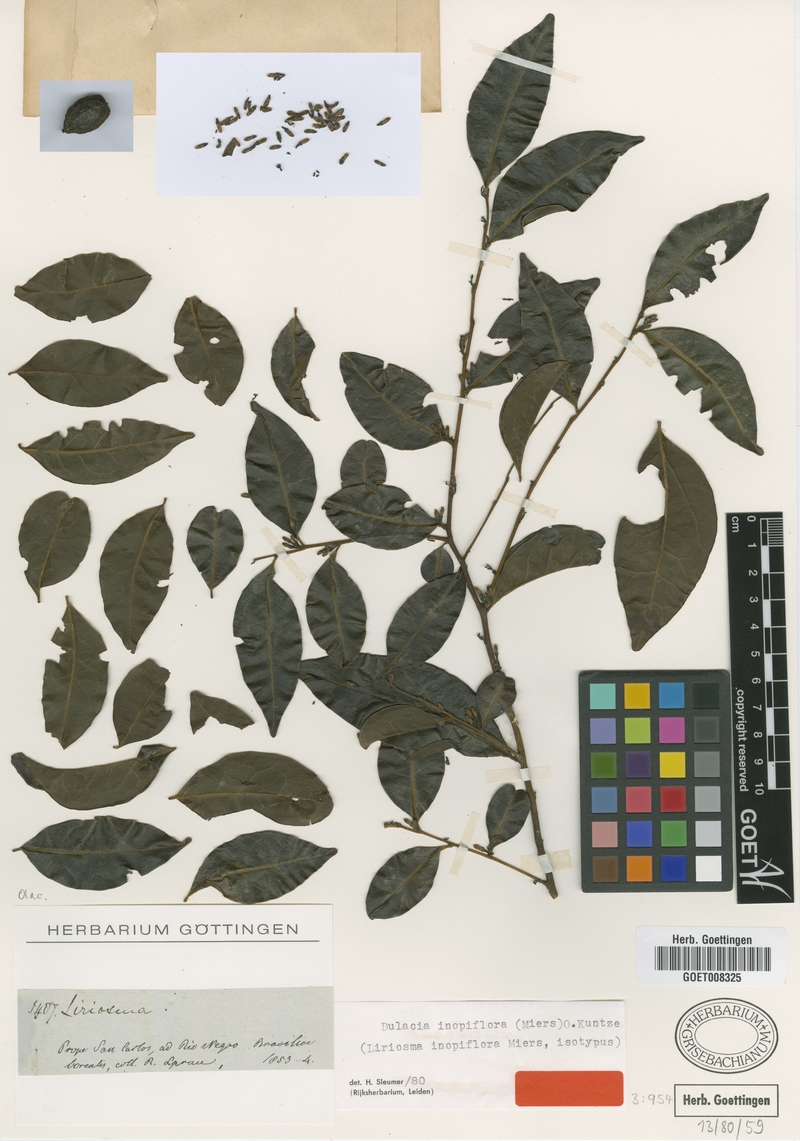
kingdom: Plantae
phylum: Tracheophyta
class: Magnoliopsida
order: Santalales
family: Olacaceae
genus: Dulacia
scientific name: Dulacia inopiflora
